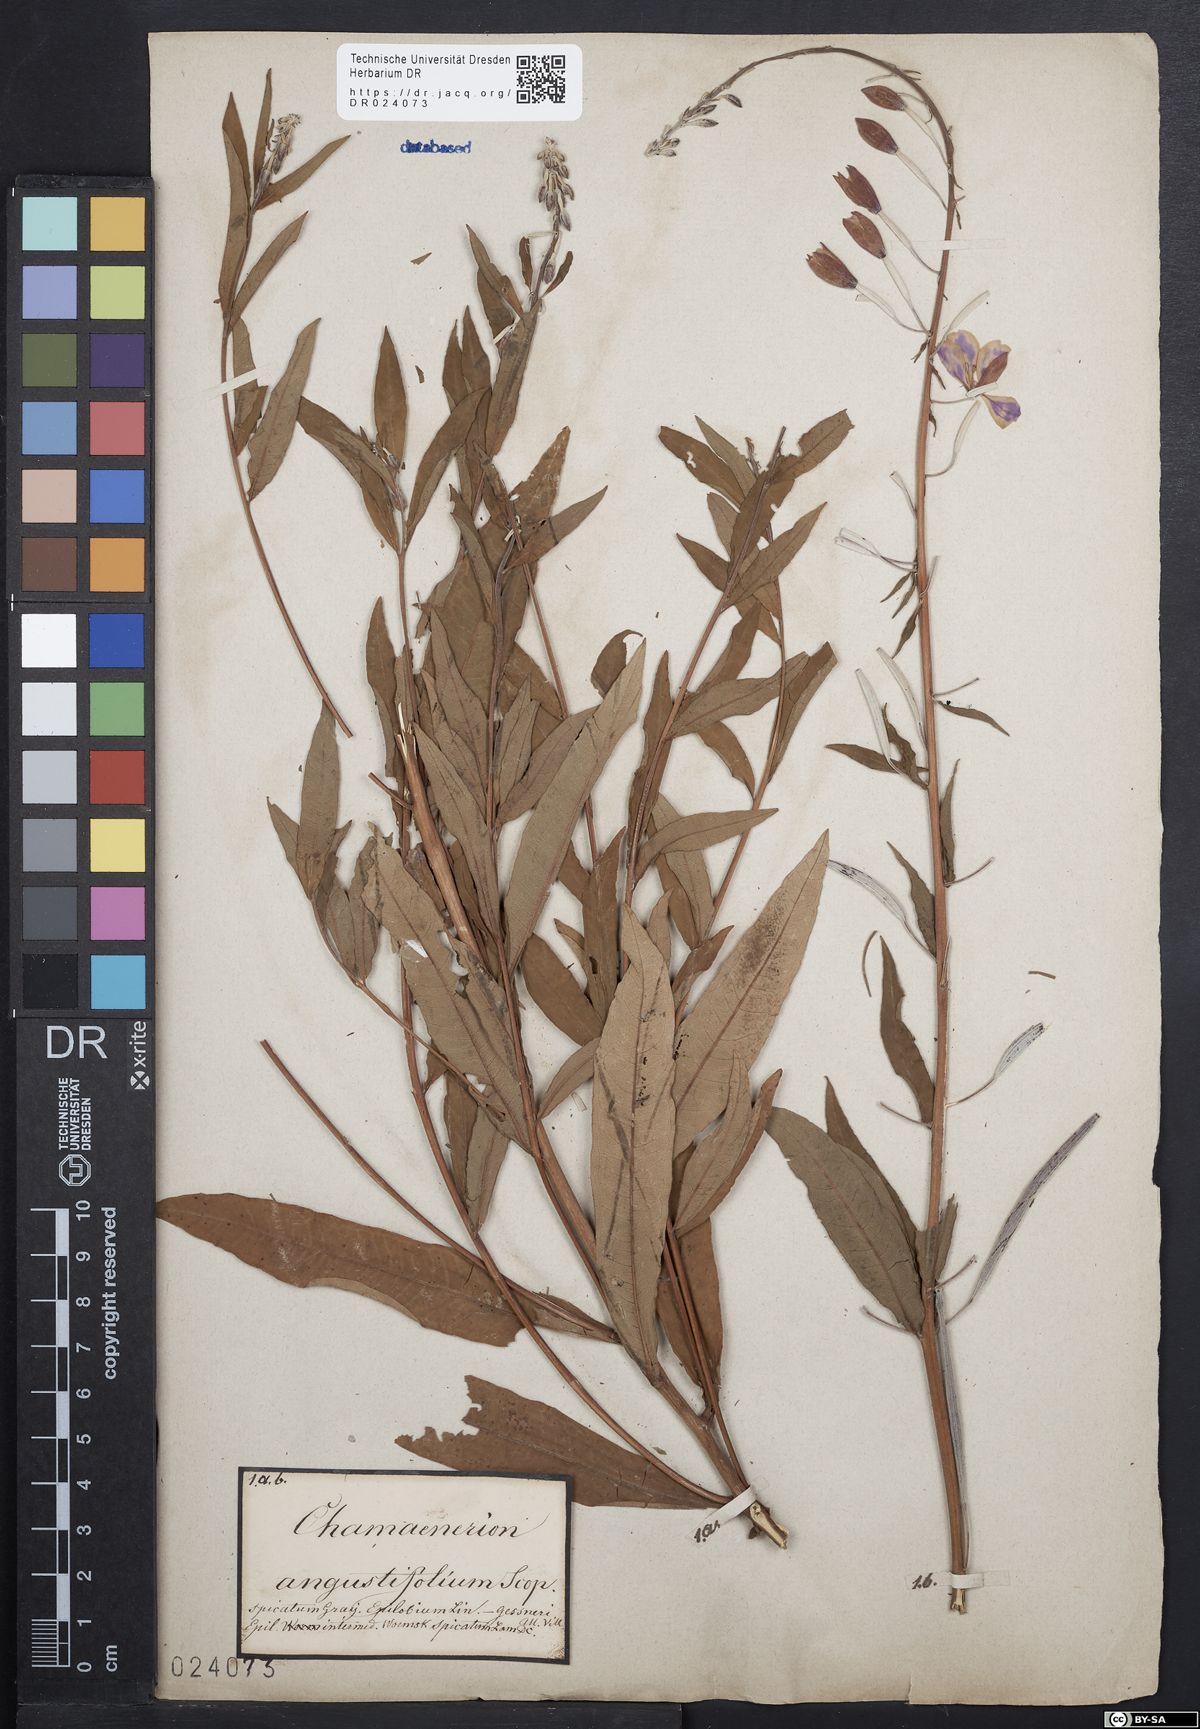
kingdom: Plantae
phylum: Tracheophyta
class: Magnoliopsida
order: Myrtales
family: Onagraceae
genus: Chamaenerion
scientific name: Chamaenerion angustifolium
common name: Fireweed
